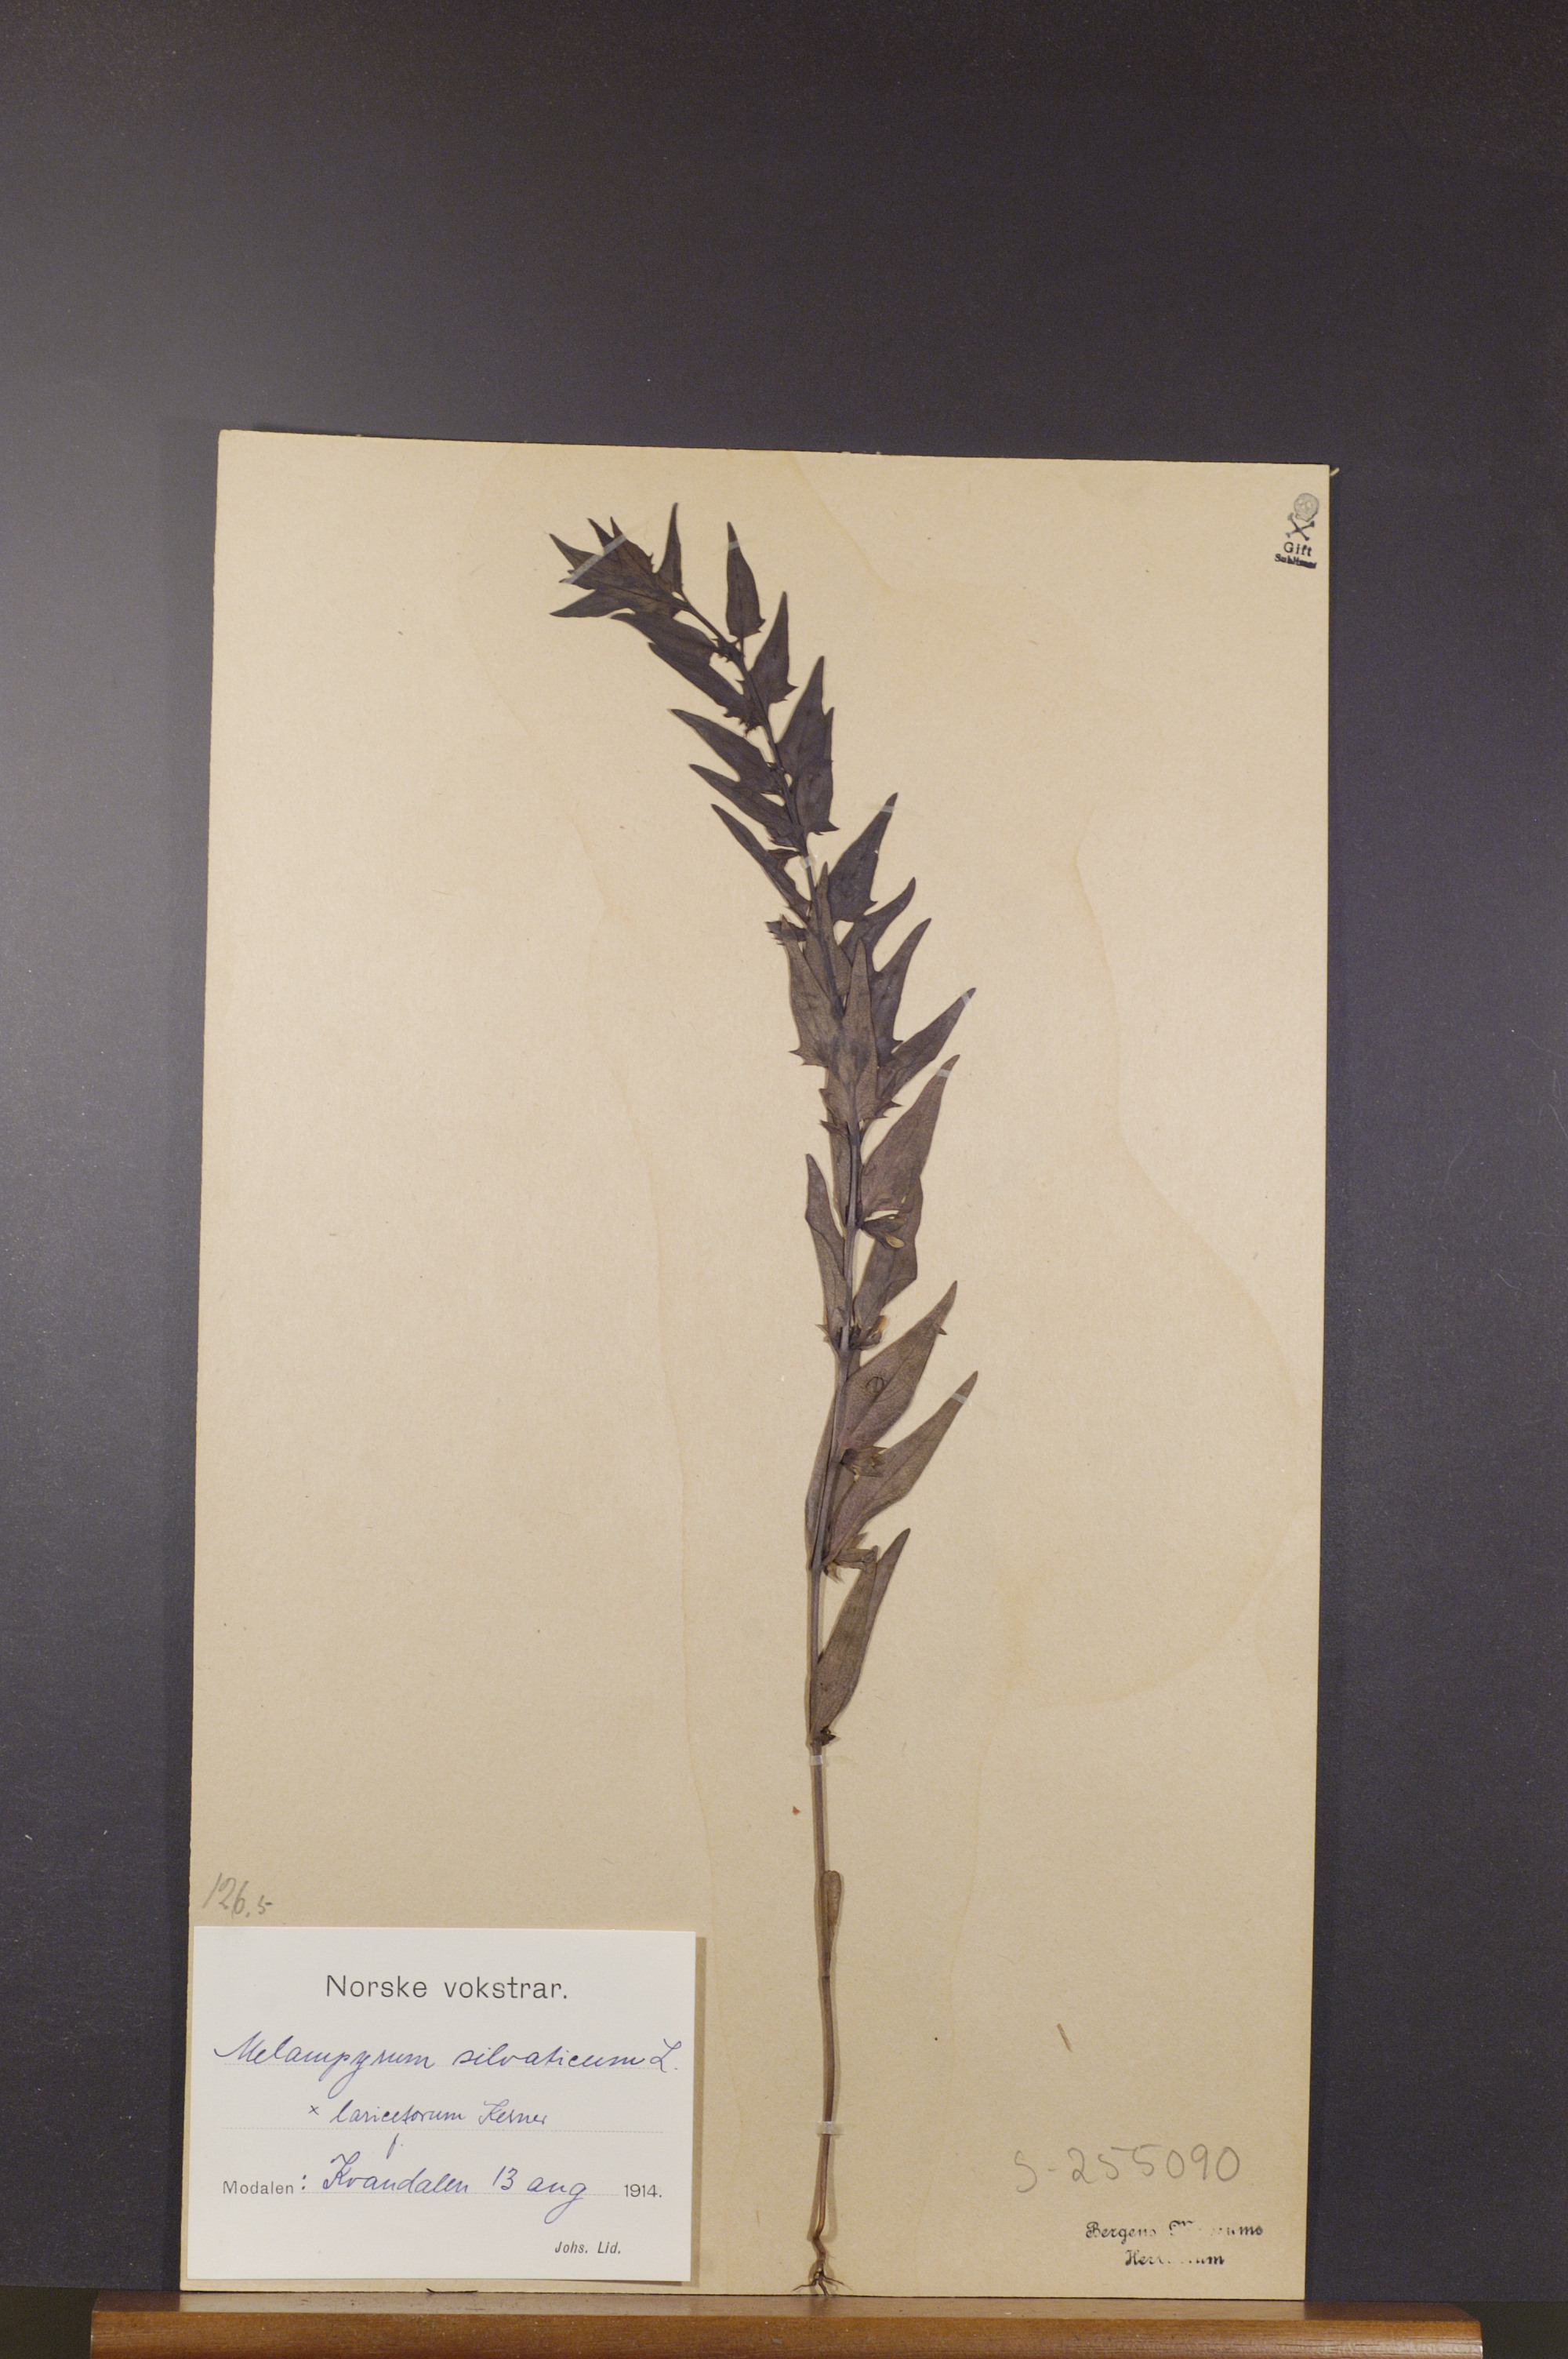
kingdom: Plantae
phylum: Tracheophyta
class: Magnoliopsida
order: Lamiales
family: Orobanchaceae
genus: Melampyrum
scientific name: Melampyrum sylvaticum
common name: Small cow-wheat
